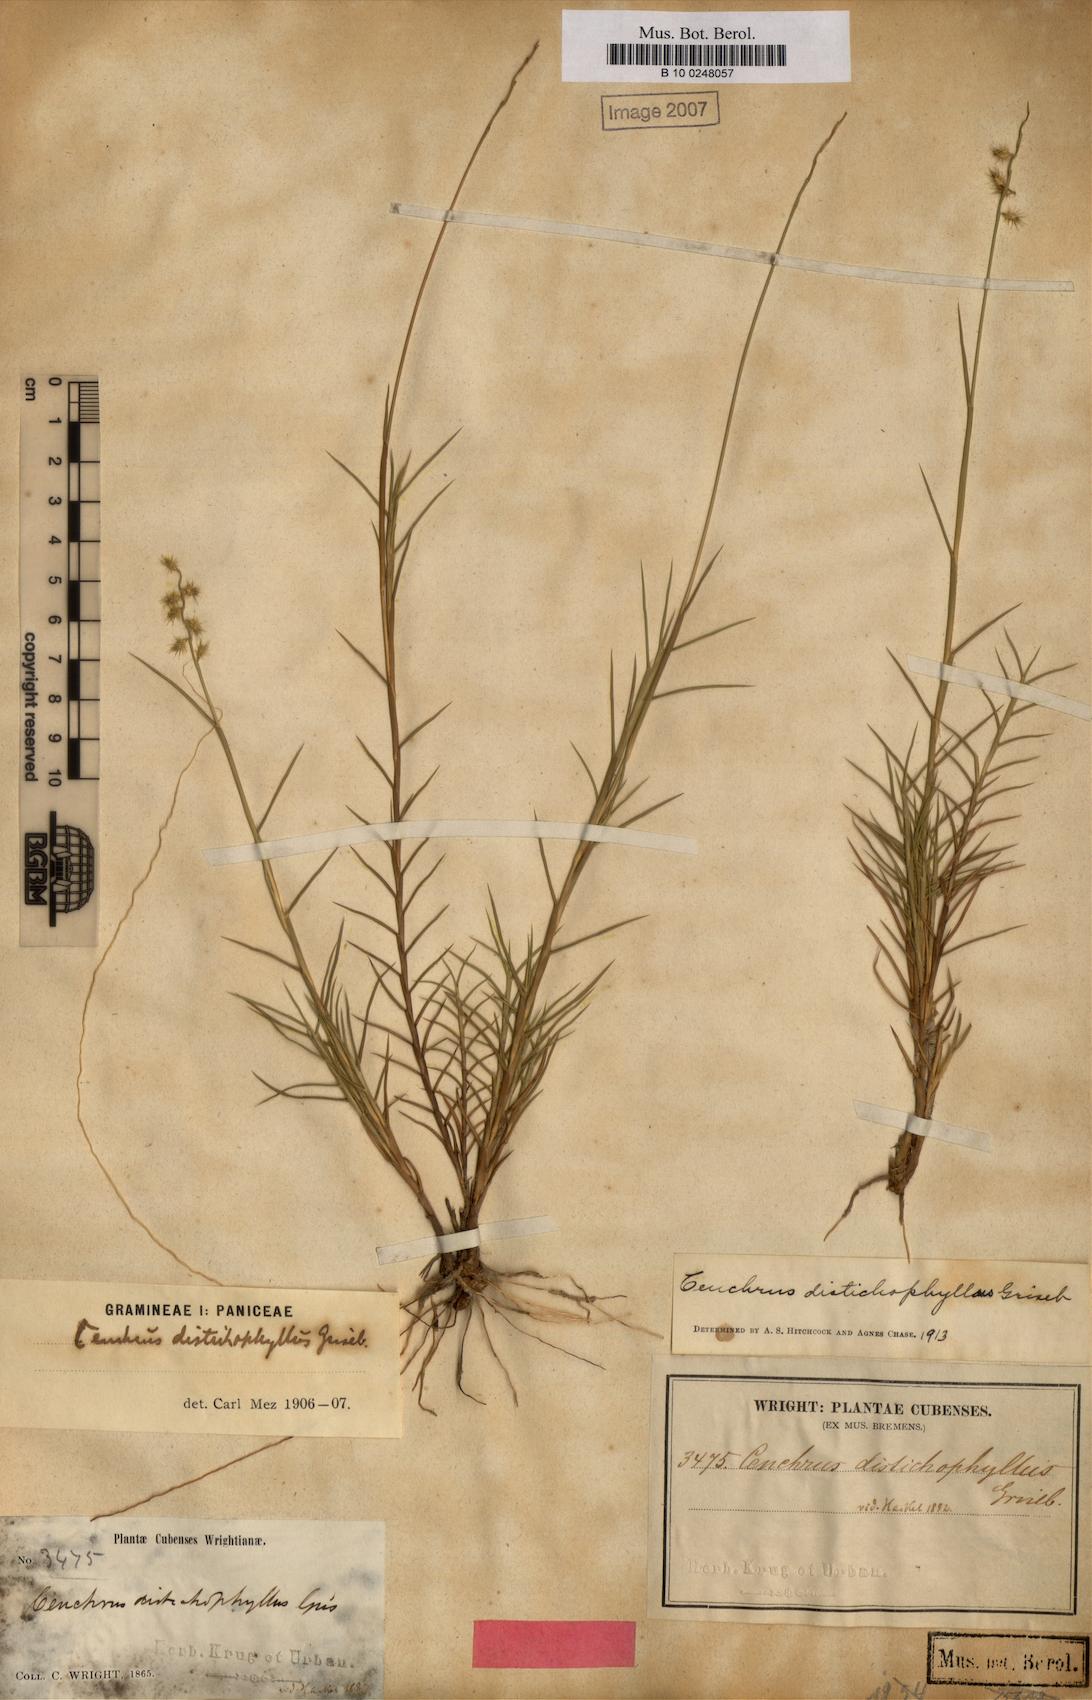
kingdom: Plantae
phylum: Tracheophyta
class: Liliopsida
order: Poales
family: Poaceae
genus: Cenchrus
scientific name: Cenchrus distichophyllus
